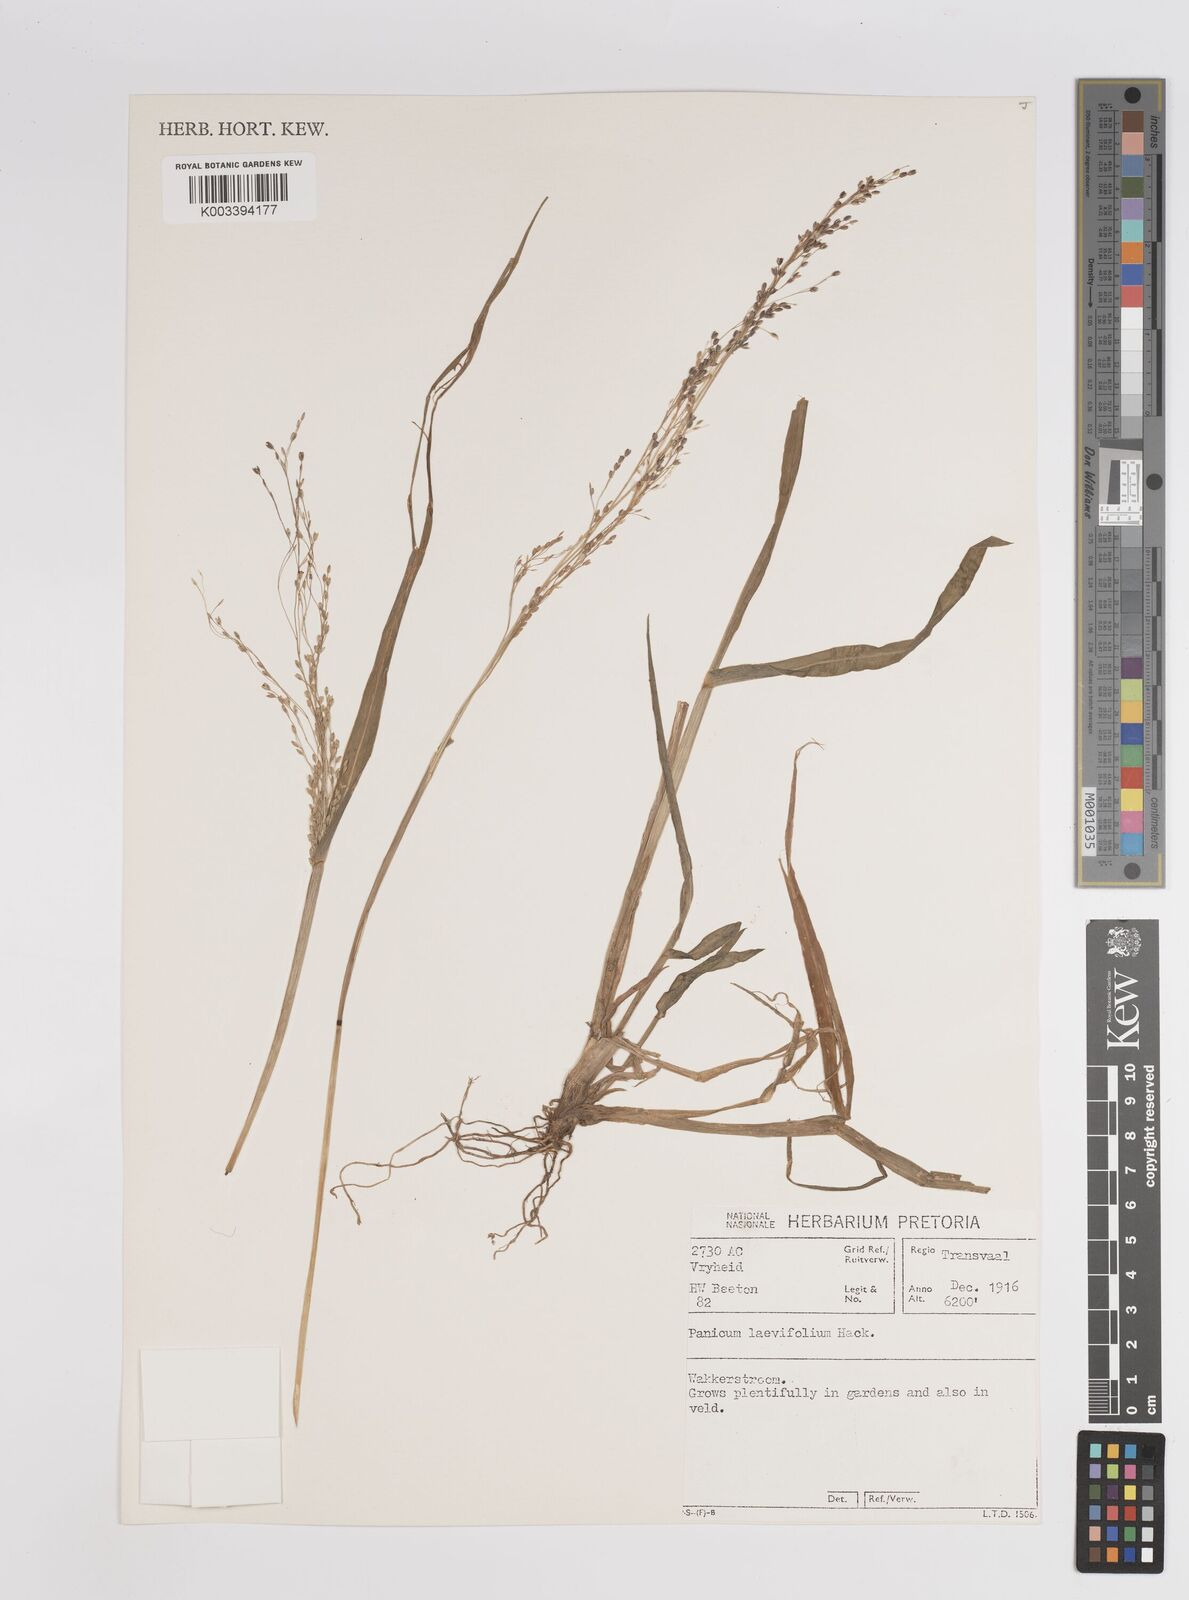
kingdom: Plantae
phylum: Tracheophyta
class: Liliopsida
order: Poales
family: Poaceae
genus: Panicum
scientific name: Panicum schinzii
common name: Sweet grass
